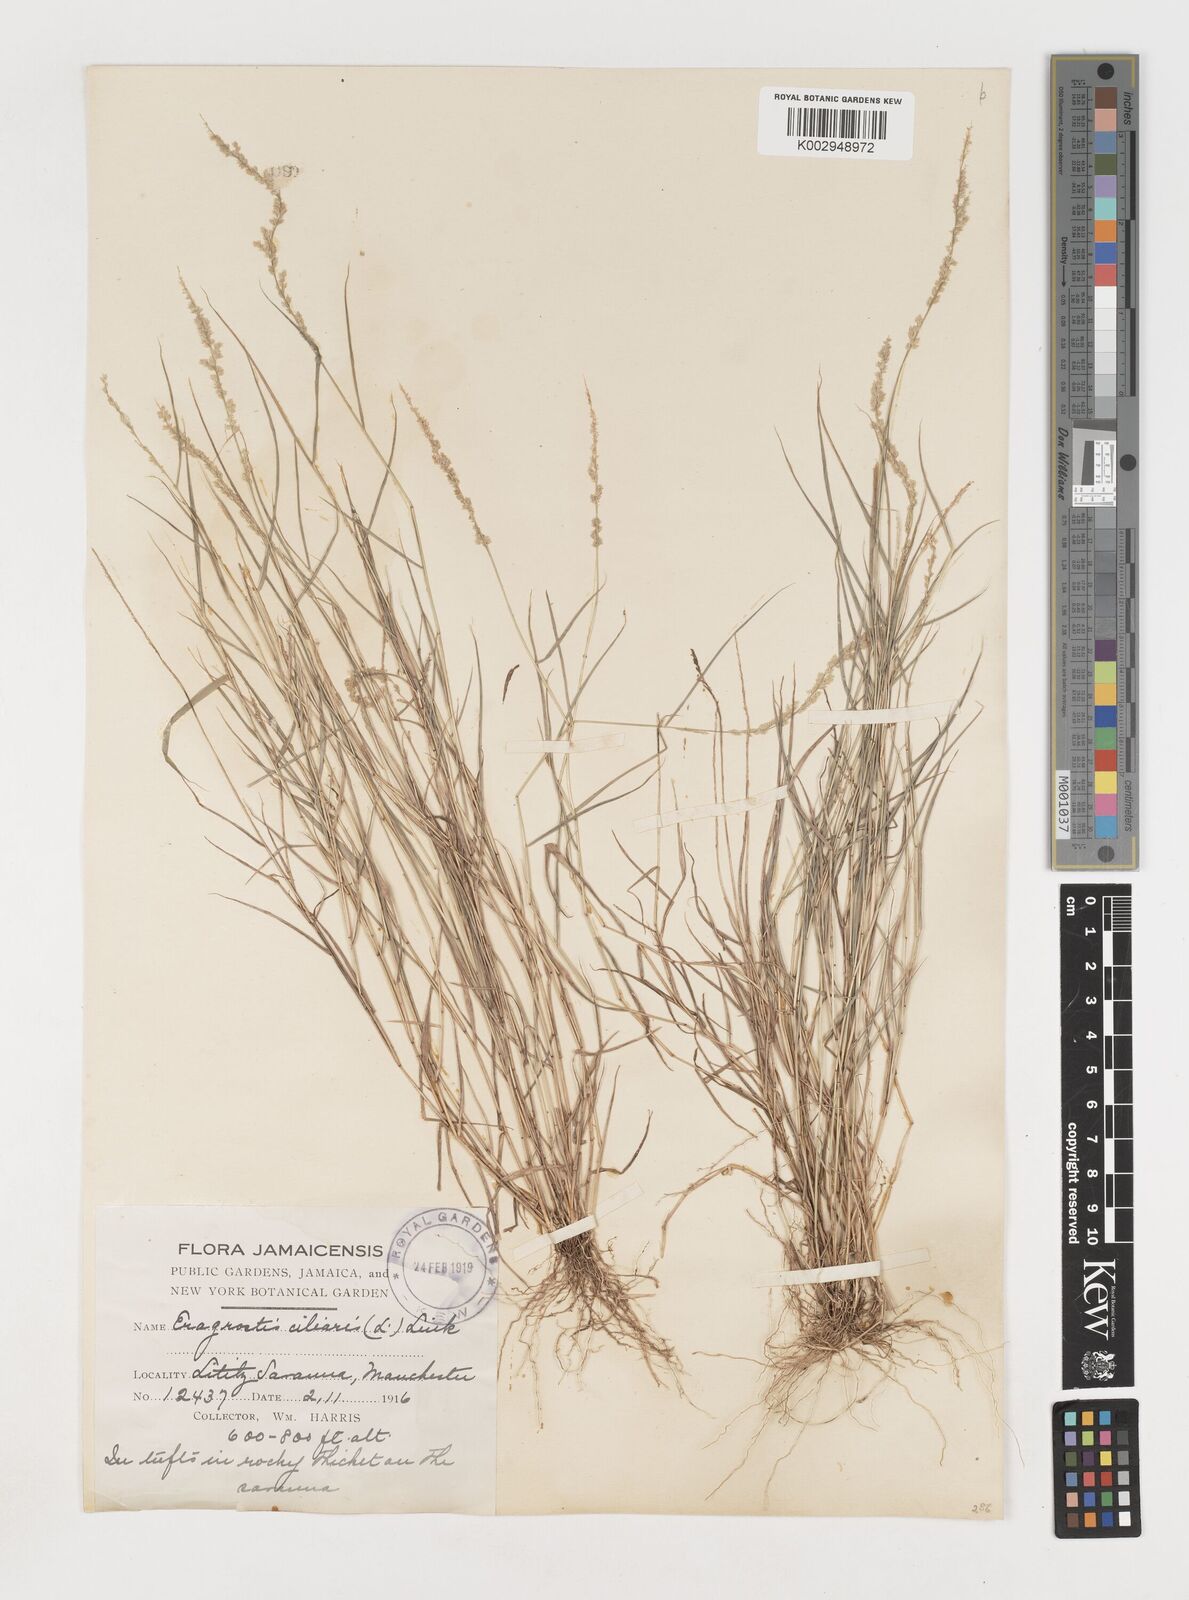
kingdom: Plantae
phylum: Tracheophyta
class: Liliopsida
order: Poales
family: Poaceae
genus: Eragrostis
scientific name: Eragrostis ciliaris
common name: Gophertail lovegrass
